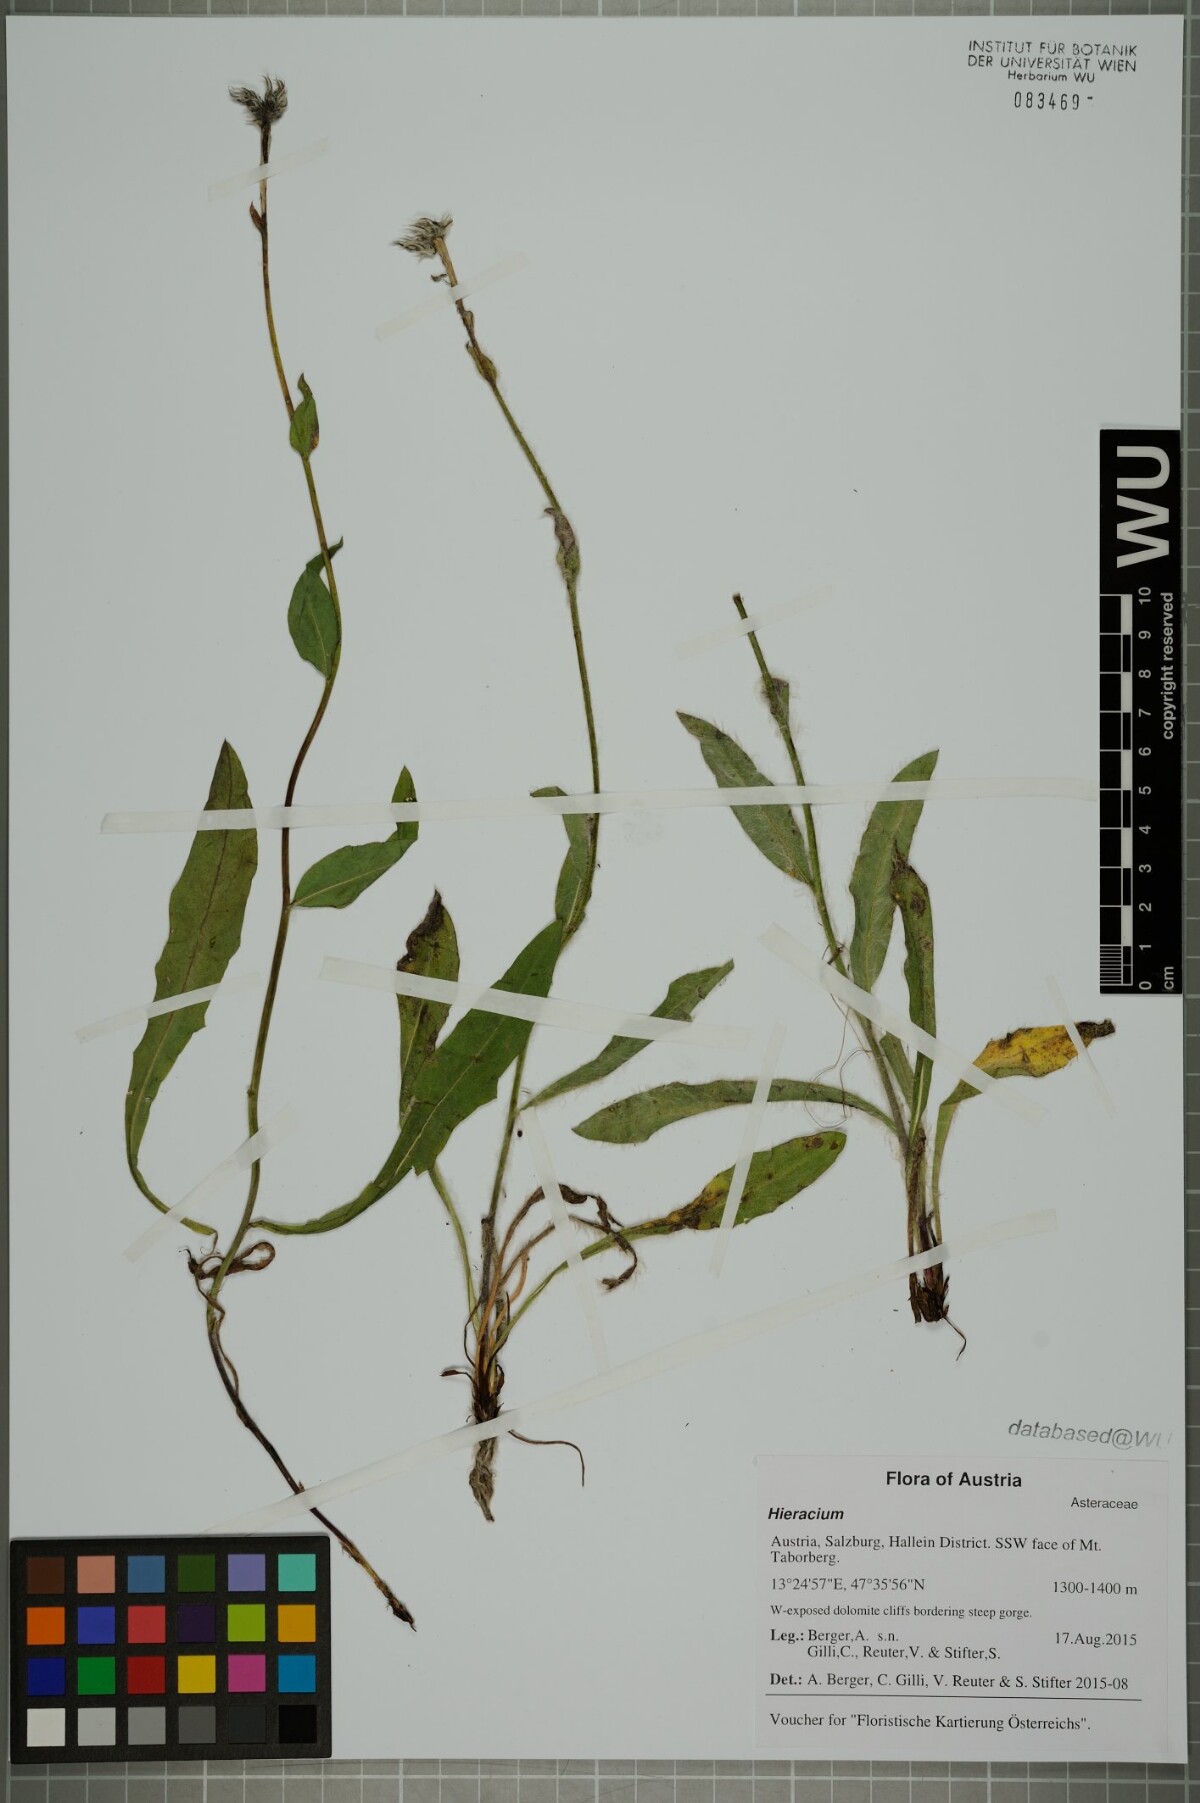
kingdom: Plantae
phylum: Tracheophyta
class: Magnoliopsida
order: Asterales
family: Asteraceae
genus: Hieracium
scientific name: Hieracium
